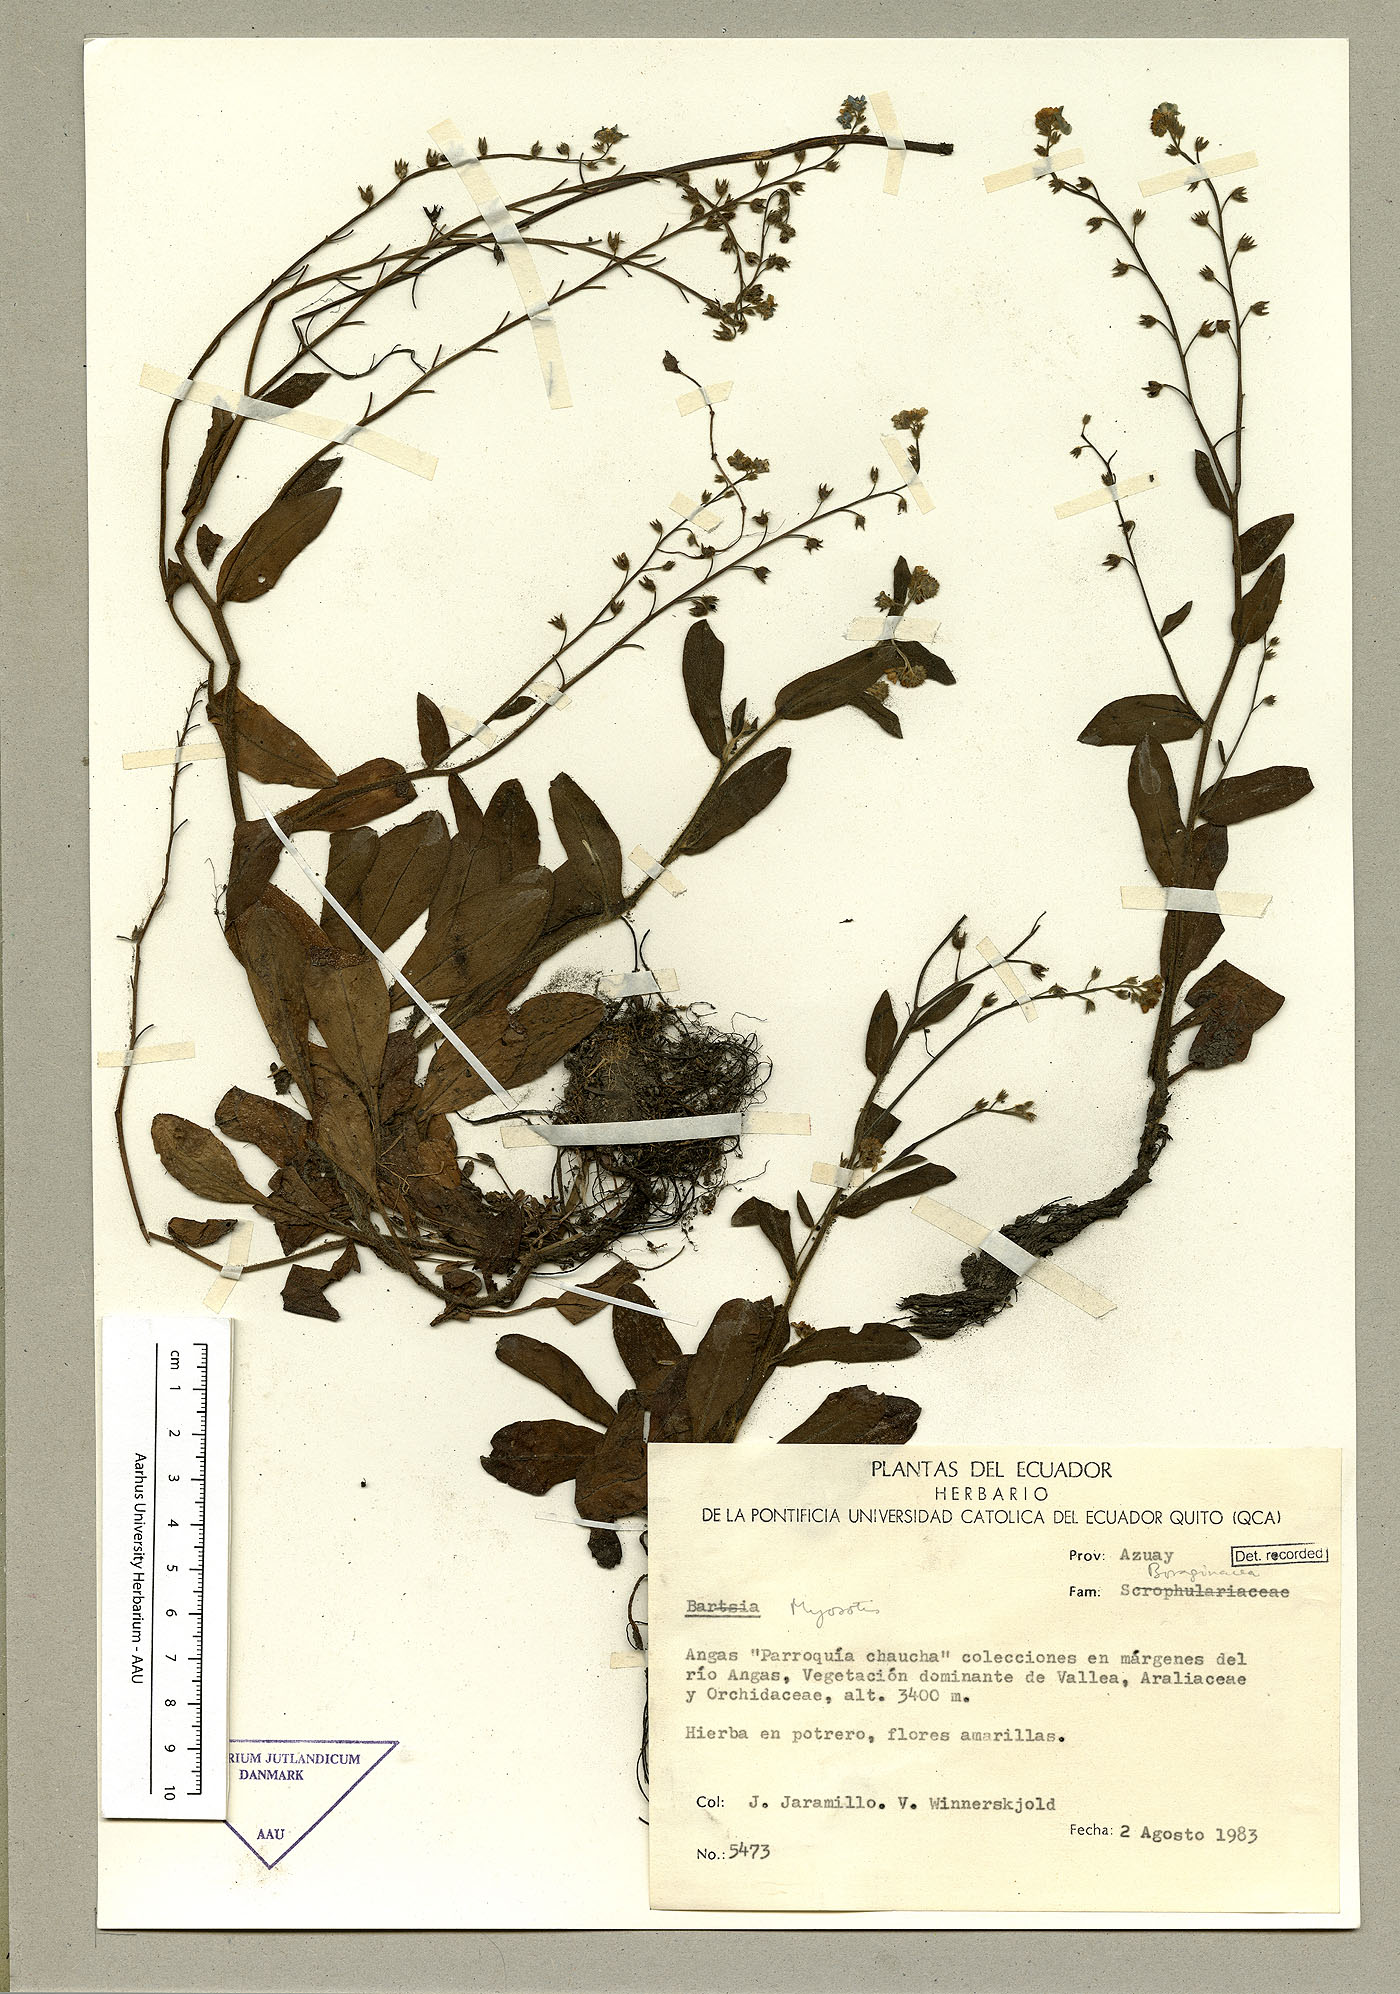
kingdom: Plantae
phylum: Tracheophyta
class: Magnoliopsida
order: Boraginales
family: Boraginaceae
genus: Myosotis
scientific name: Myosotis latifolia
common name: Broadleaf forget-me-not
